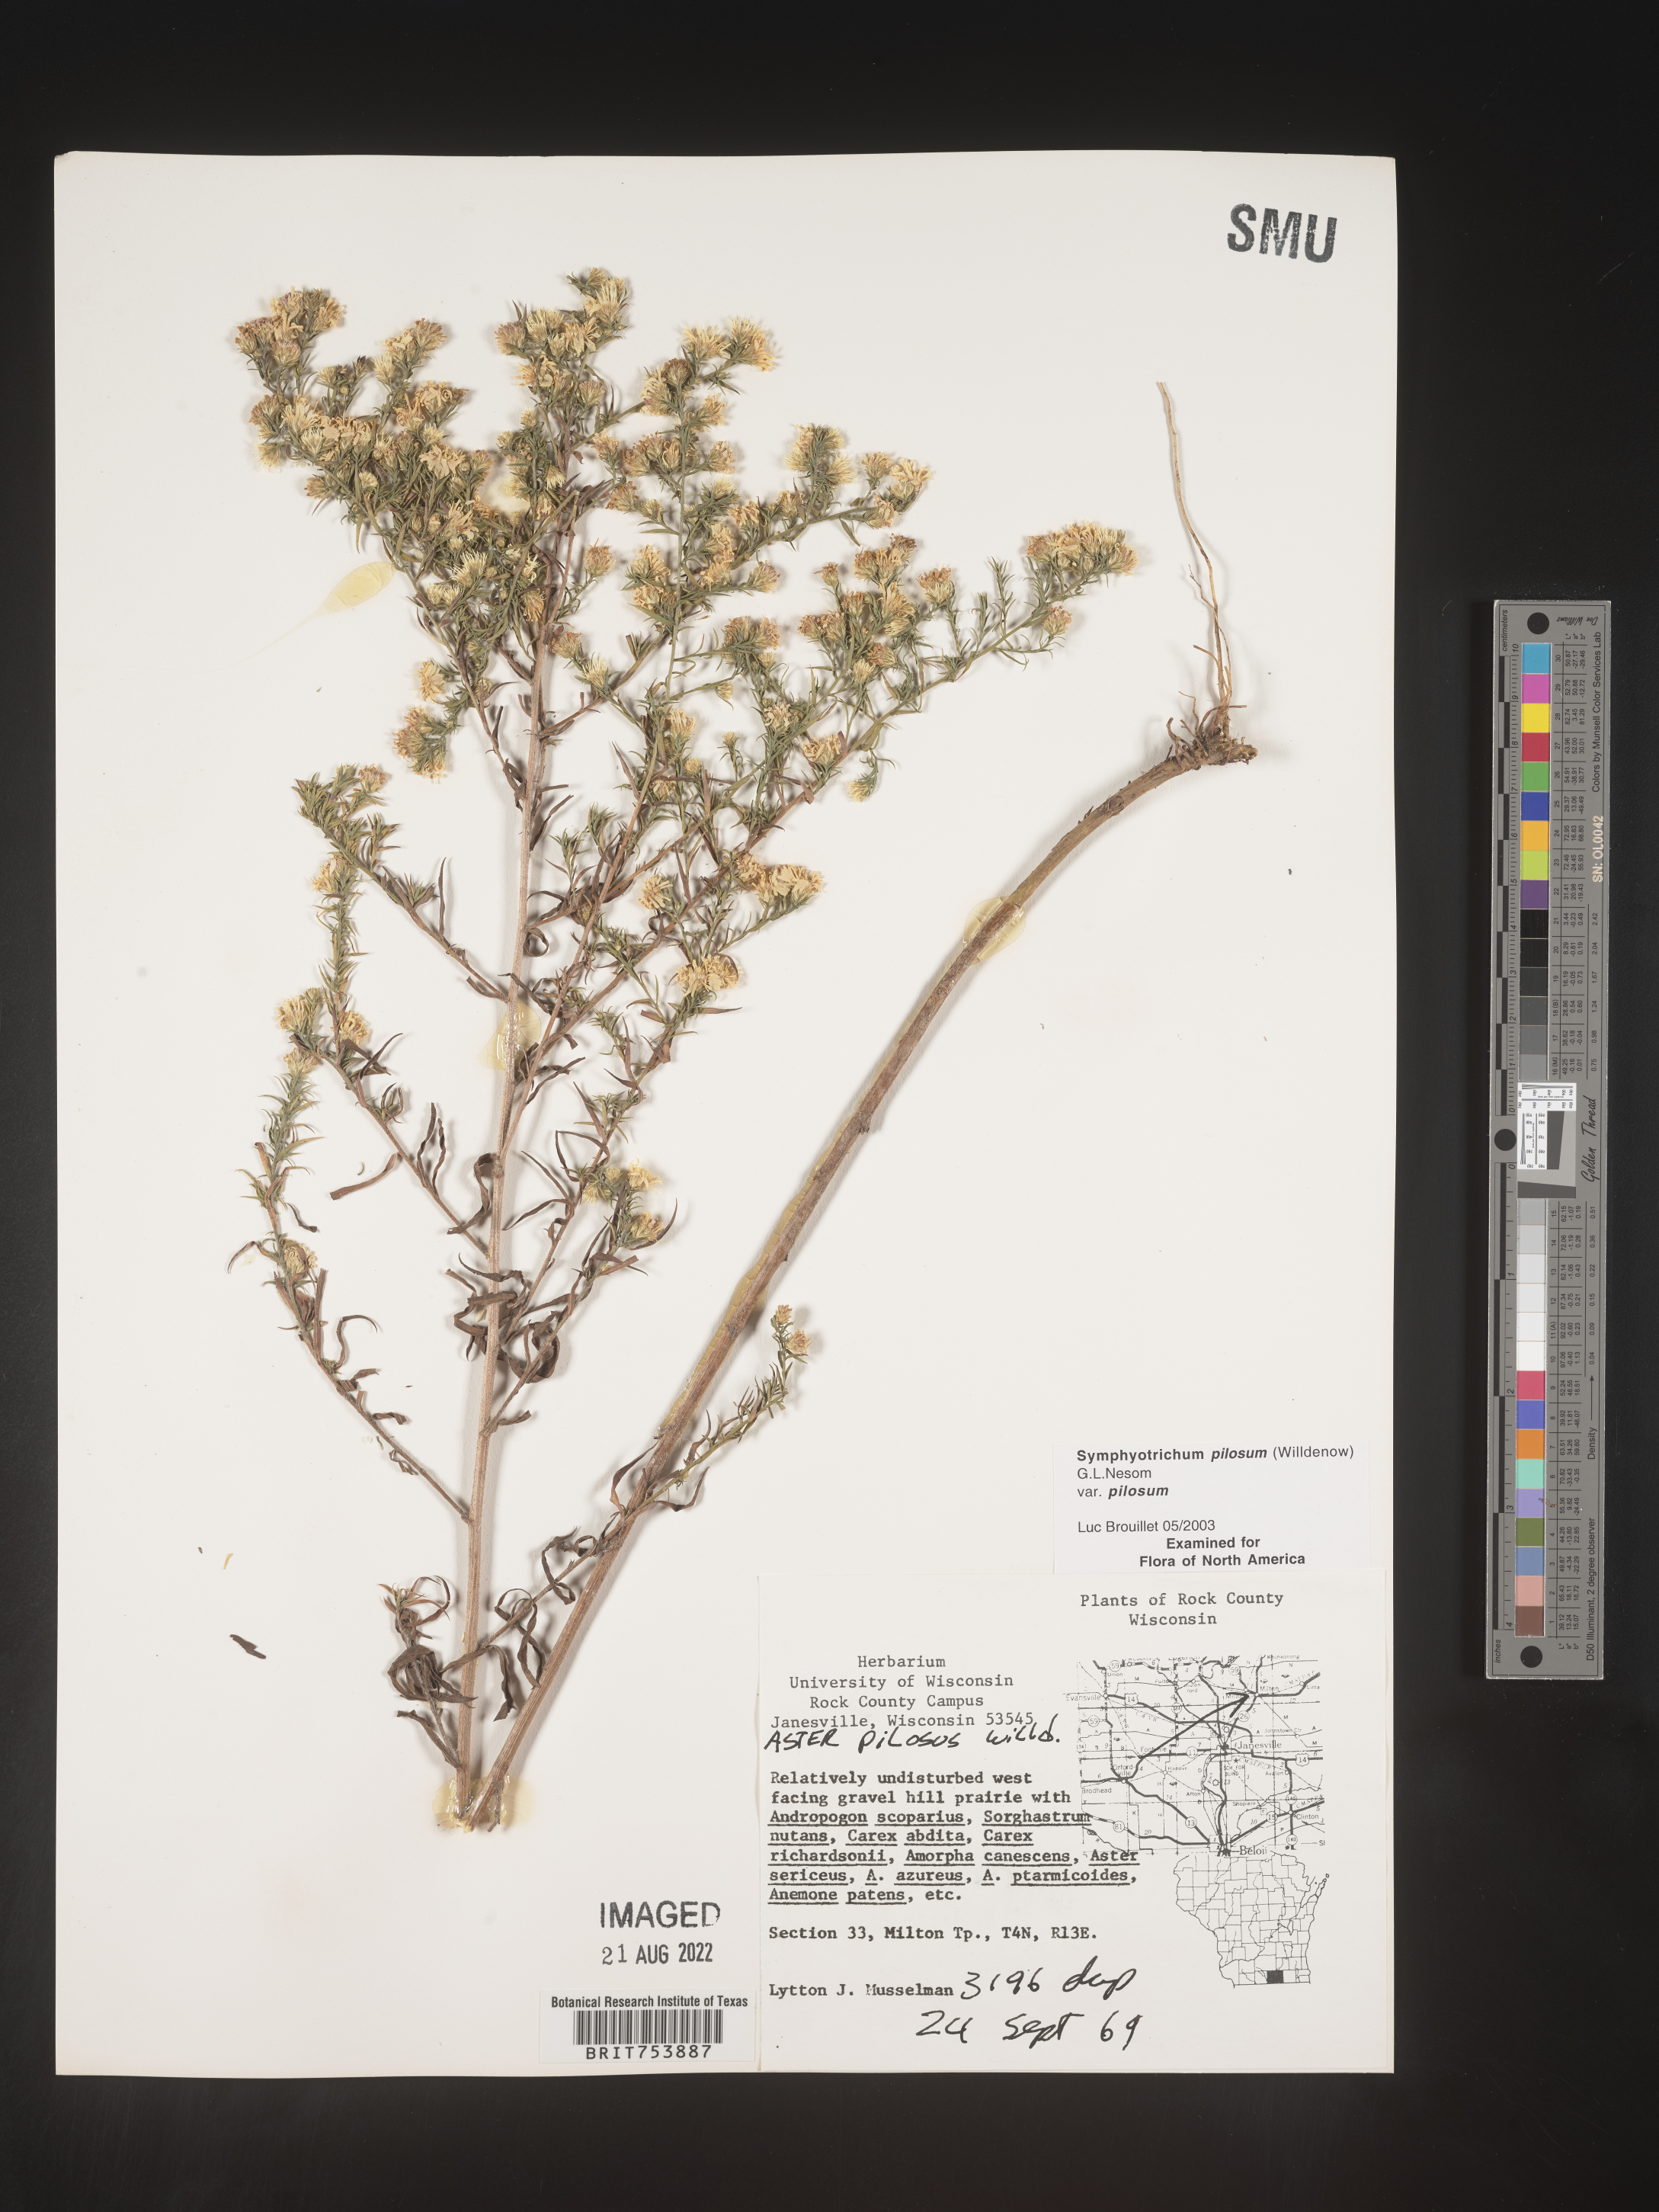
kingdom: Plantae
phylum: Tracheophyta
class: Magnoliopsida
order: Asterales
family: Asteraceae
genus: Symphyotrichum
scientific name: Symphyotrichum pilosum
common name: Awl aster
